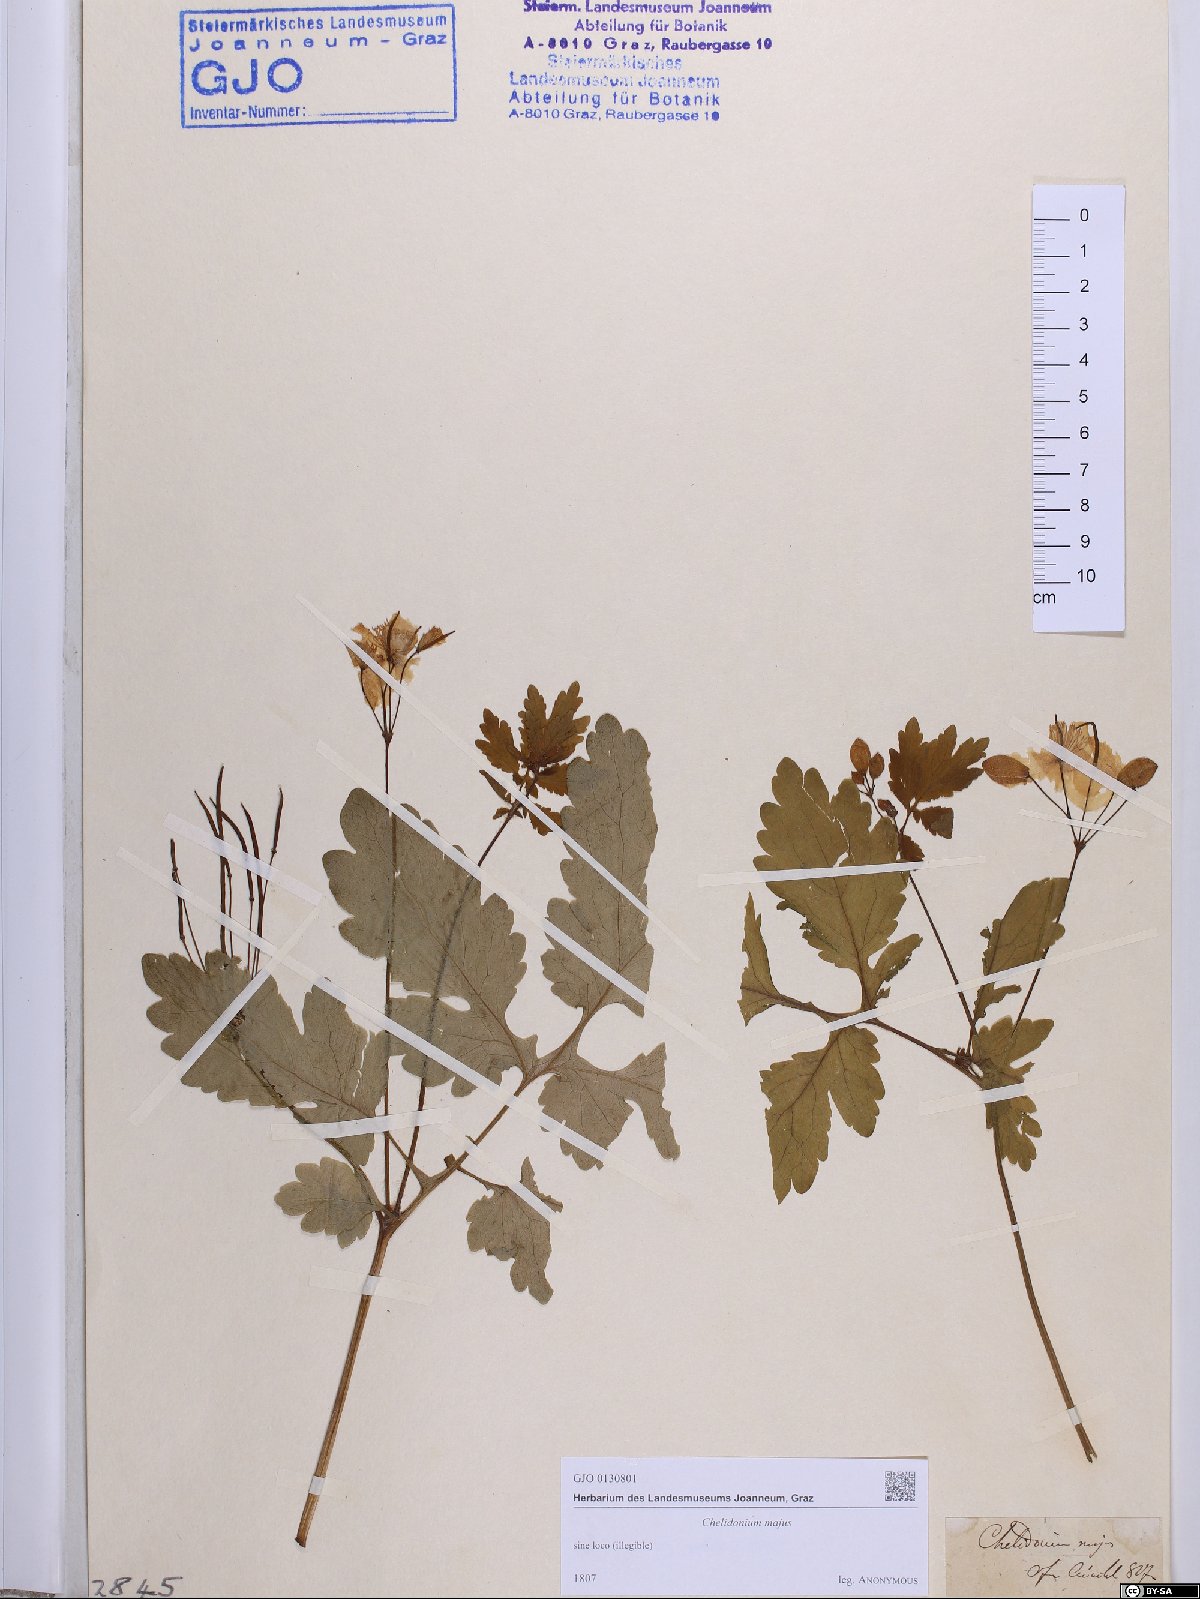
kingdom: Plantae
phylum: Tracheophyta
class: Magnoliopsida
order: Ranunculales
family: Papaveraceae
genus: Chelidonium
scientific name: Chelidonium majus
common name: Greater celandine
